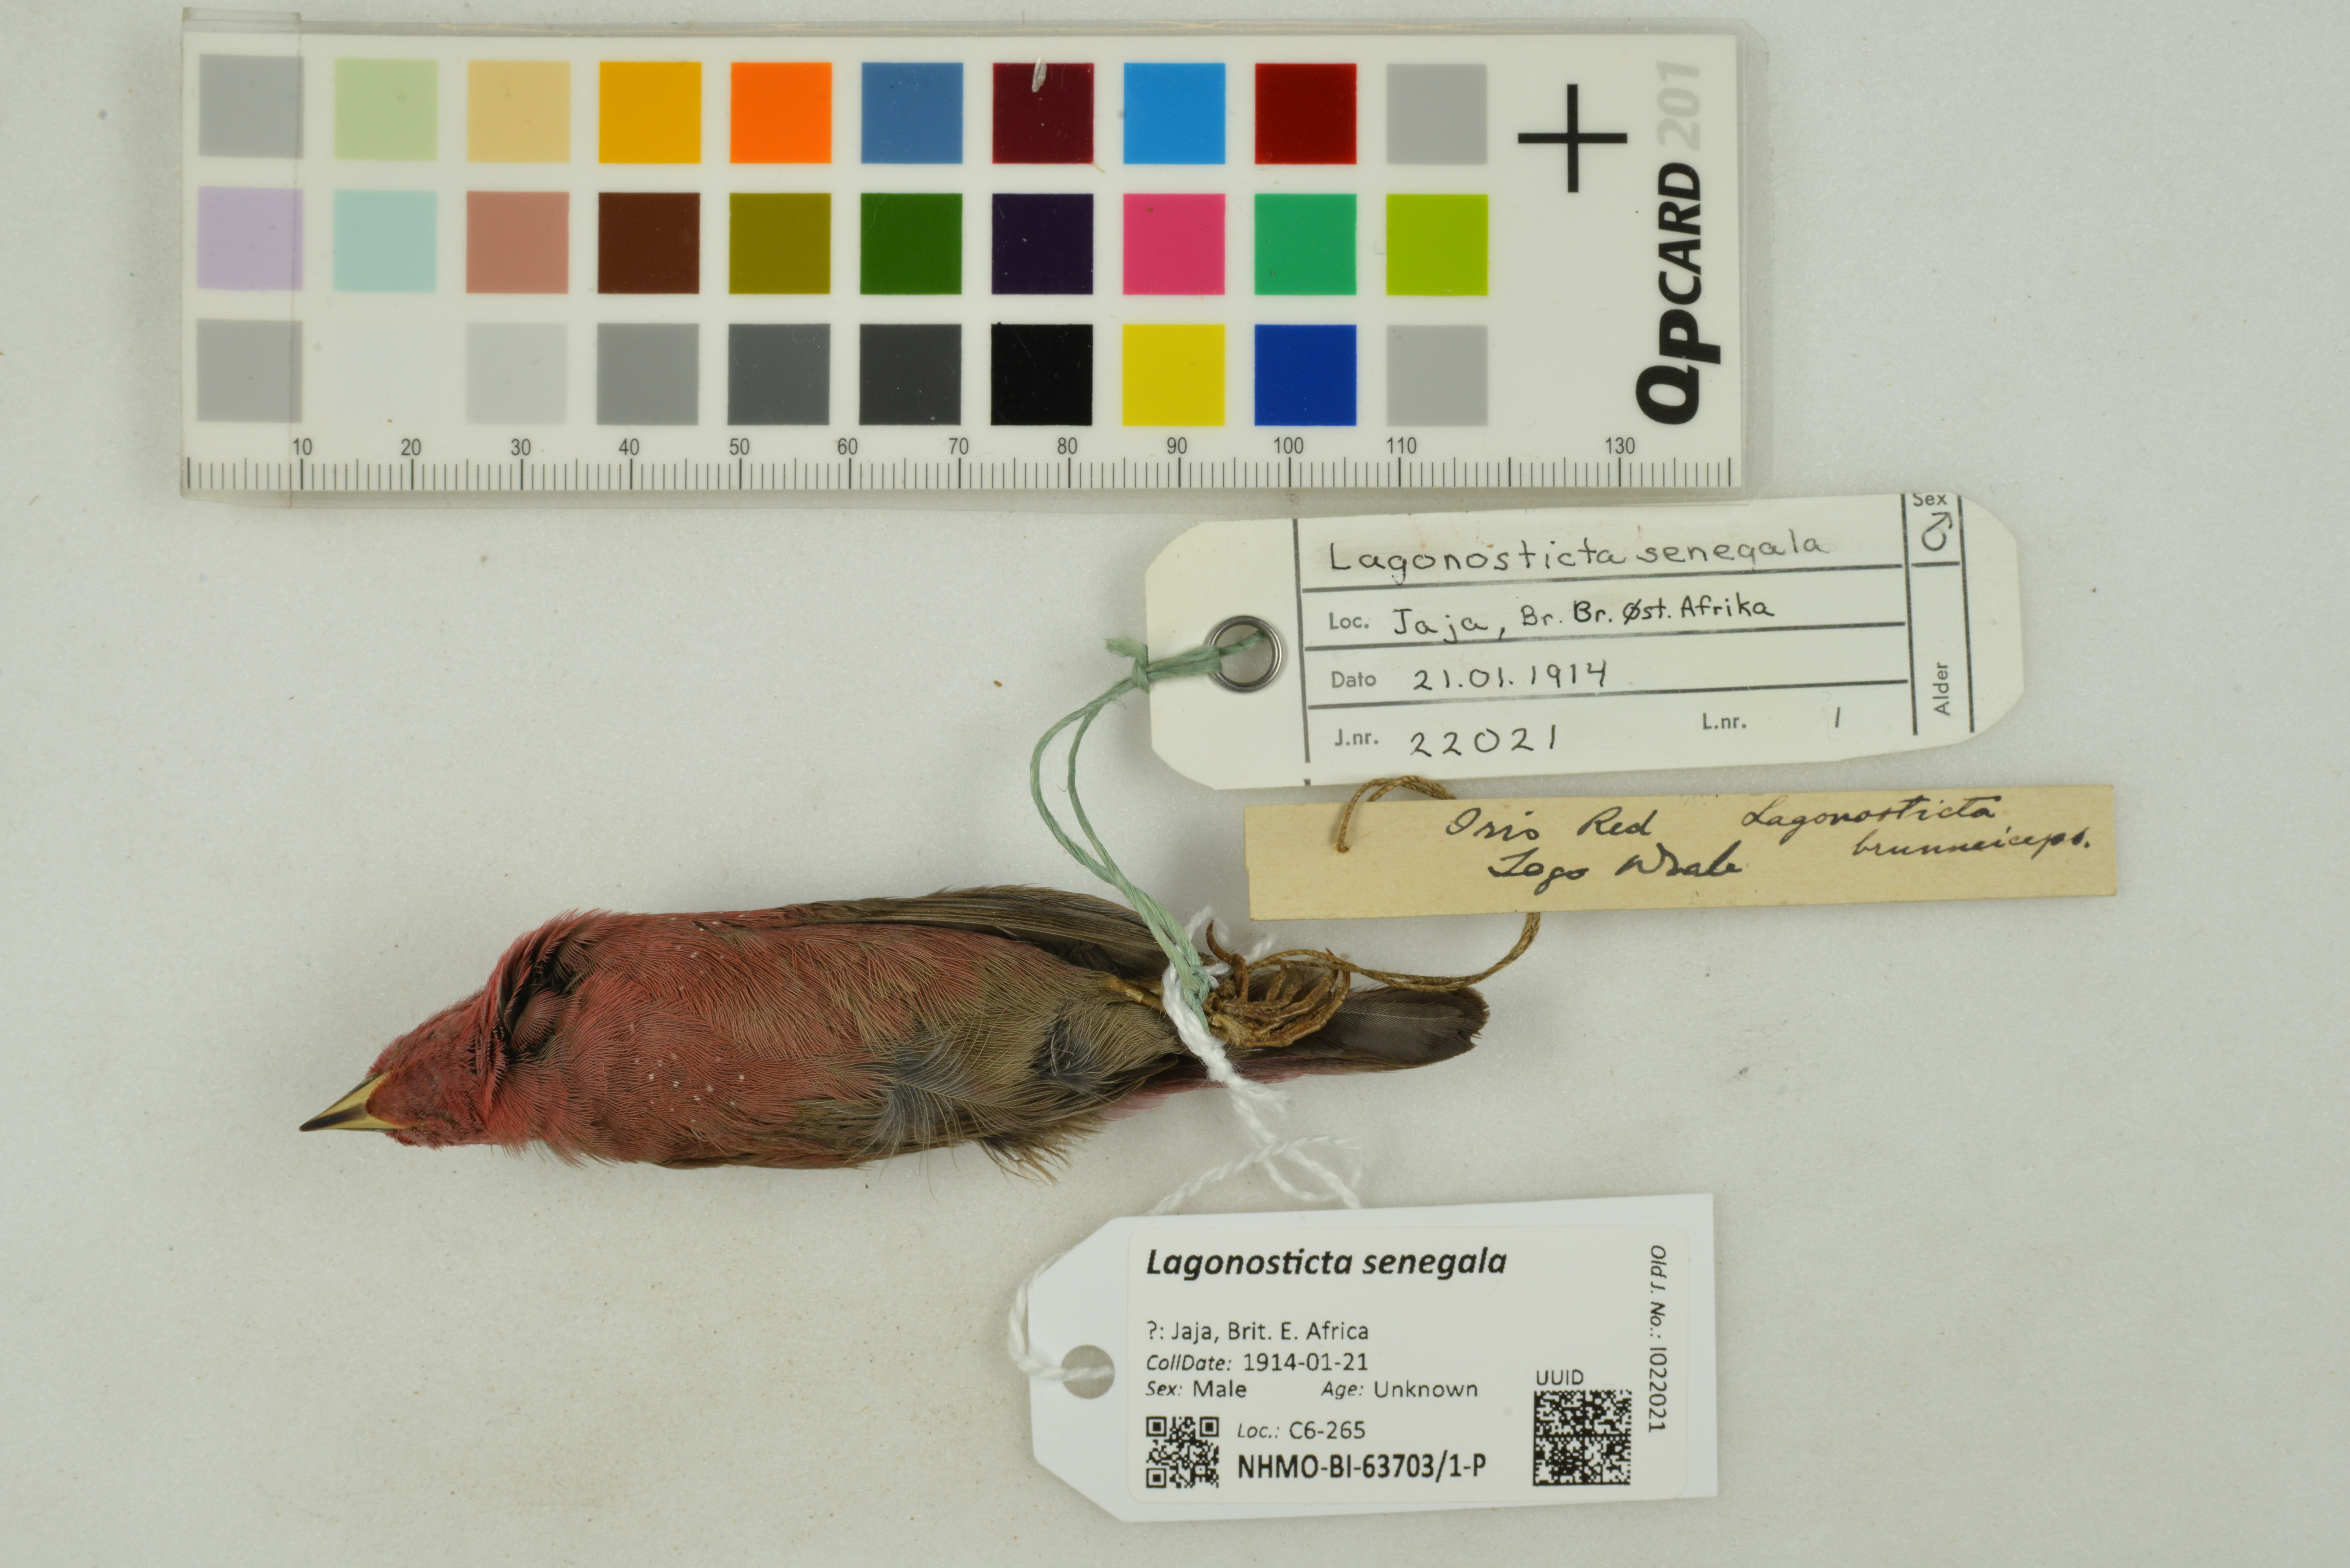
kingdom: Animalia
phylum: Chordata
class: Aves
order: Passeriformes
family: Estrildidae
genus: Lagonosticta
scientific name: Lagonosticta senegala
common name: Red-billed firefinch
